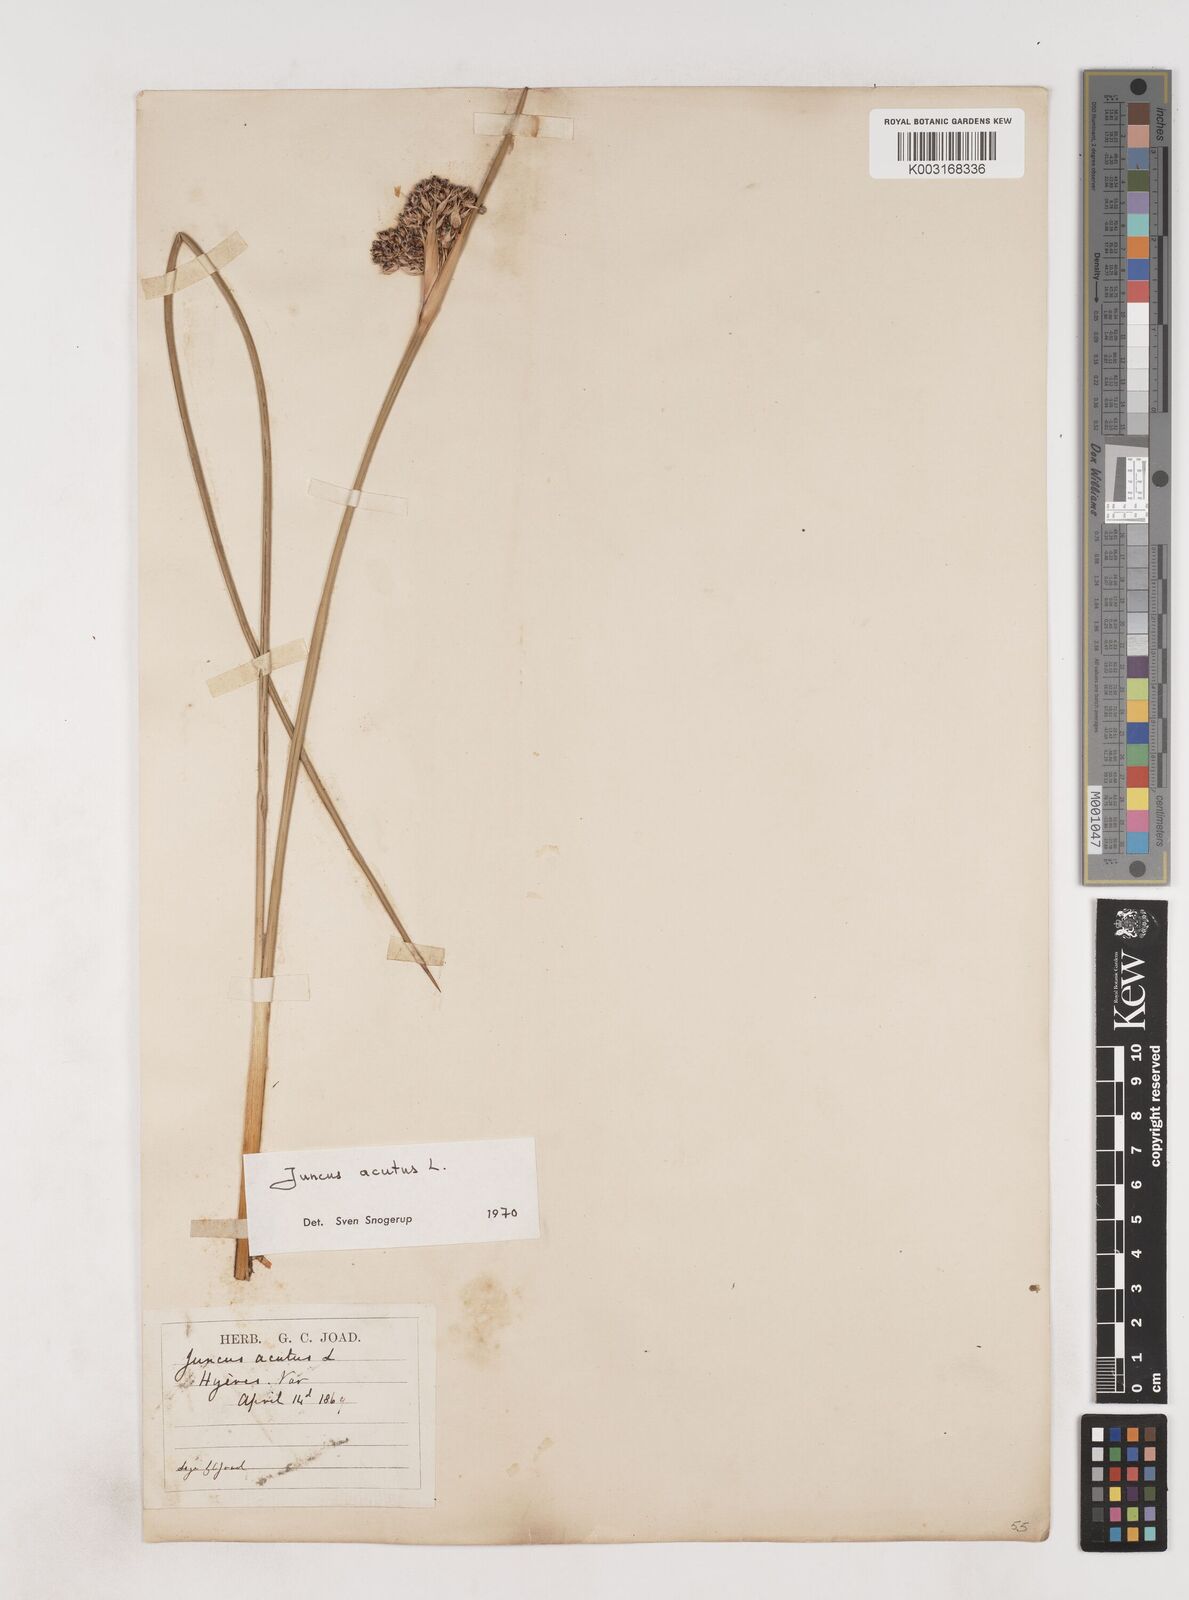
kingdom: Plantae
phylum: Tracheophyta
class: Liliopsida
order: Poales
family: Juncaceae
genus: Juncus
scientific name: Juncus acutus
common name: Sharp rush
